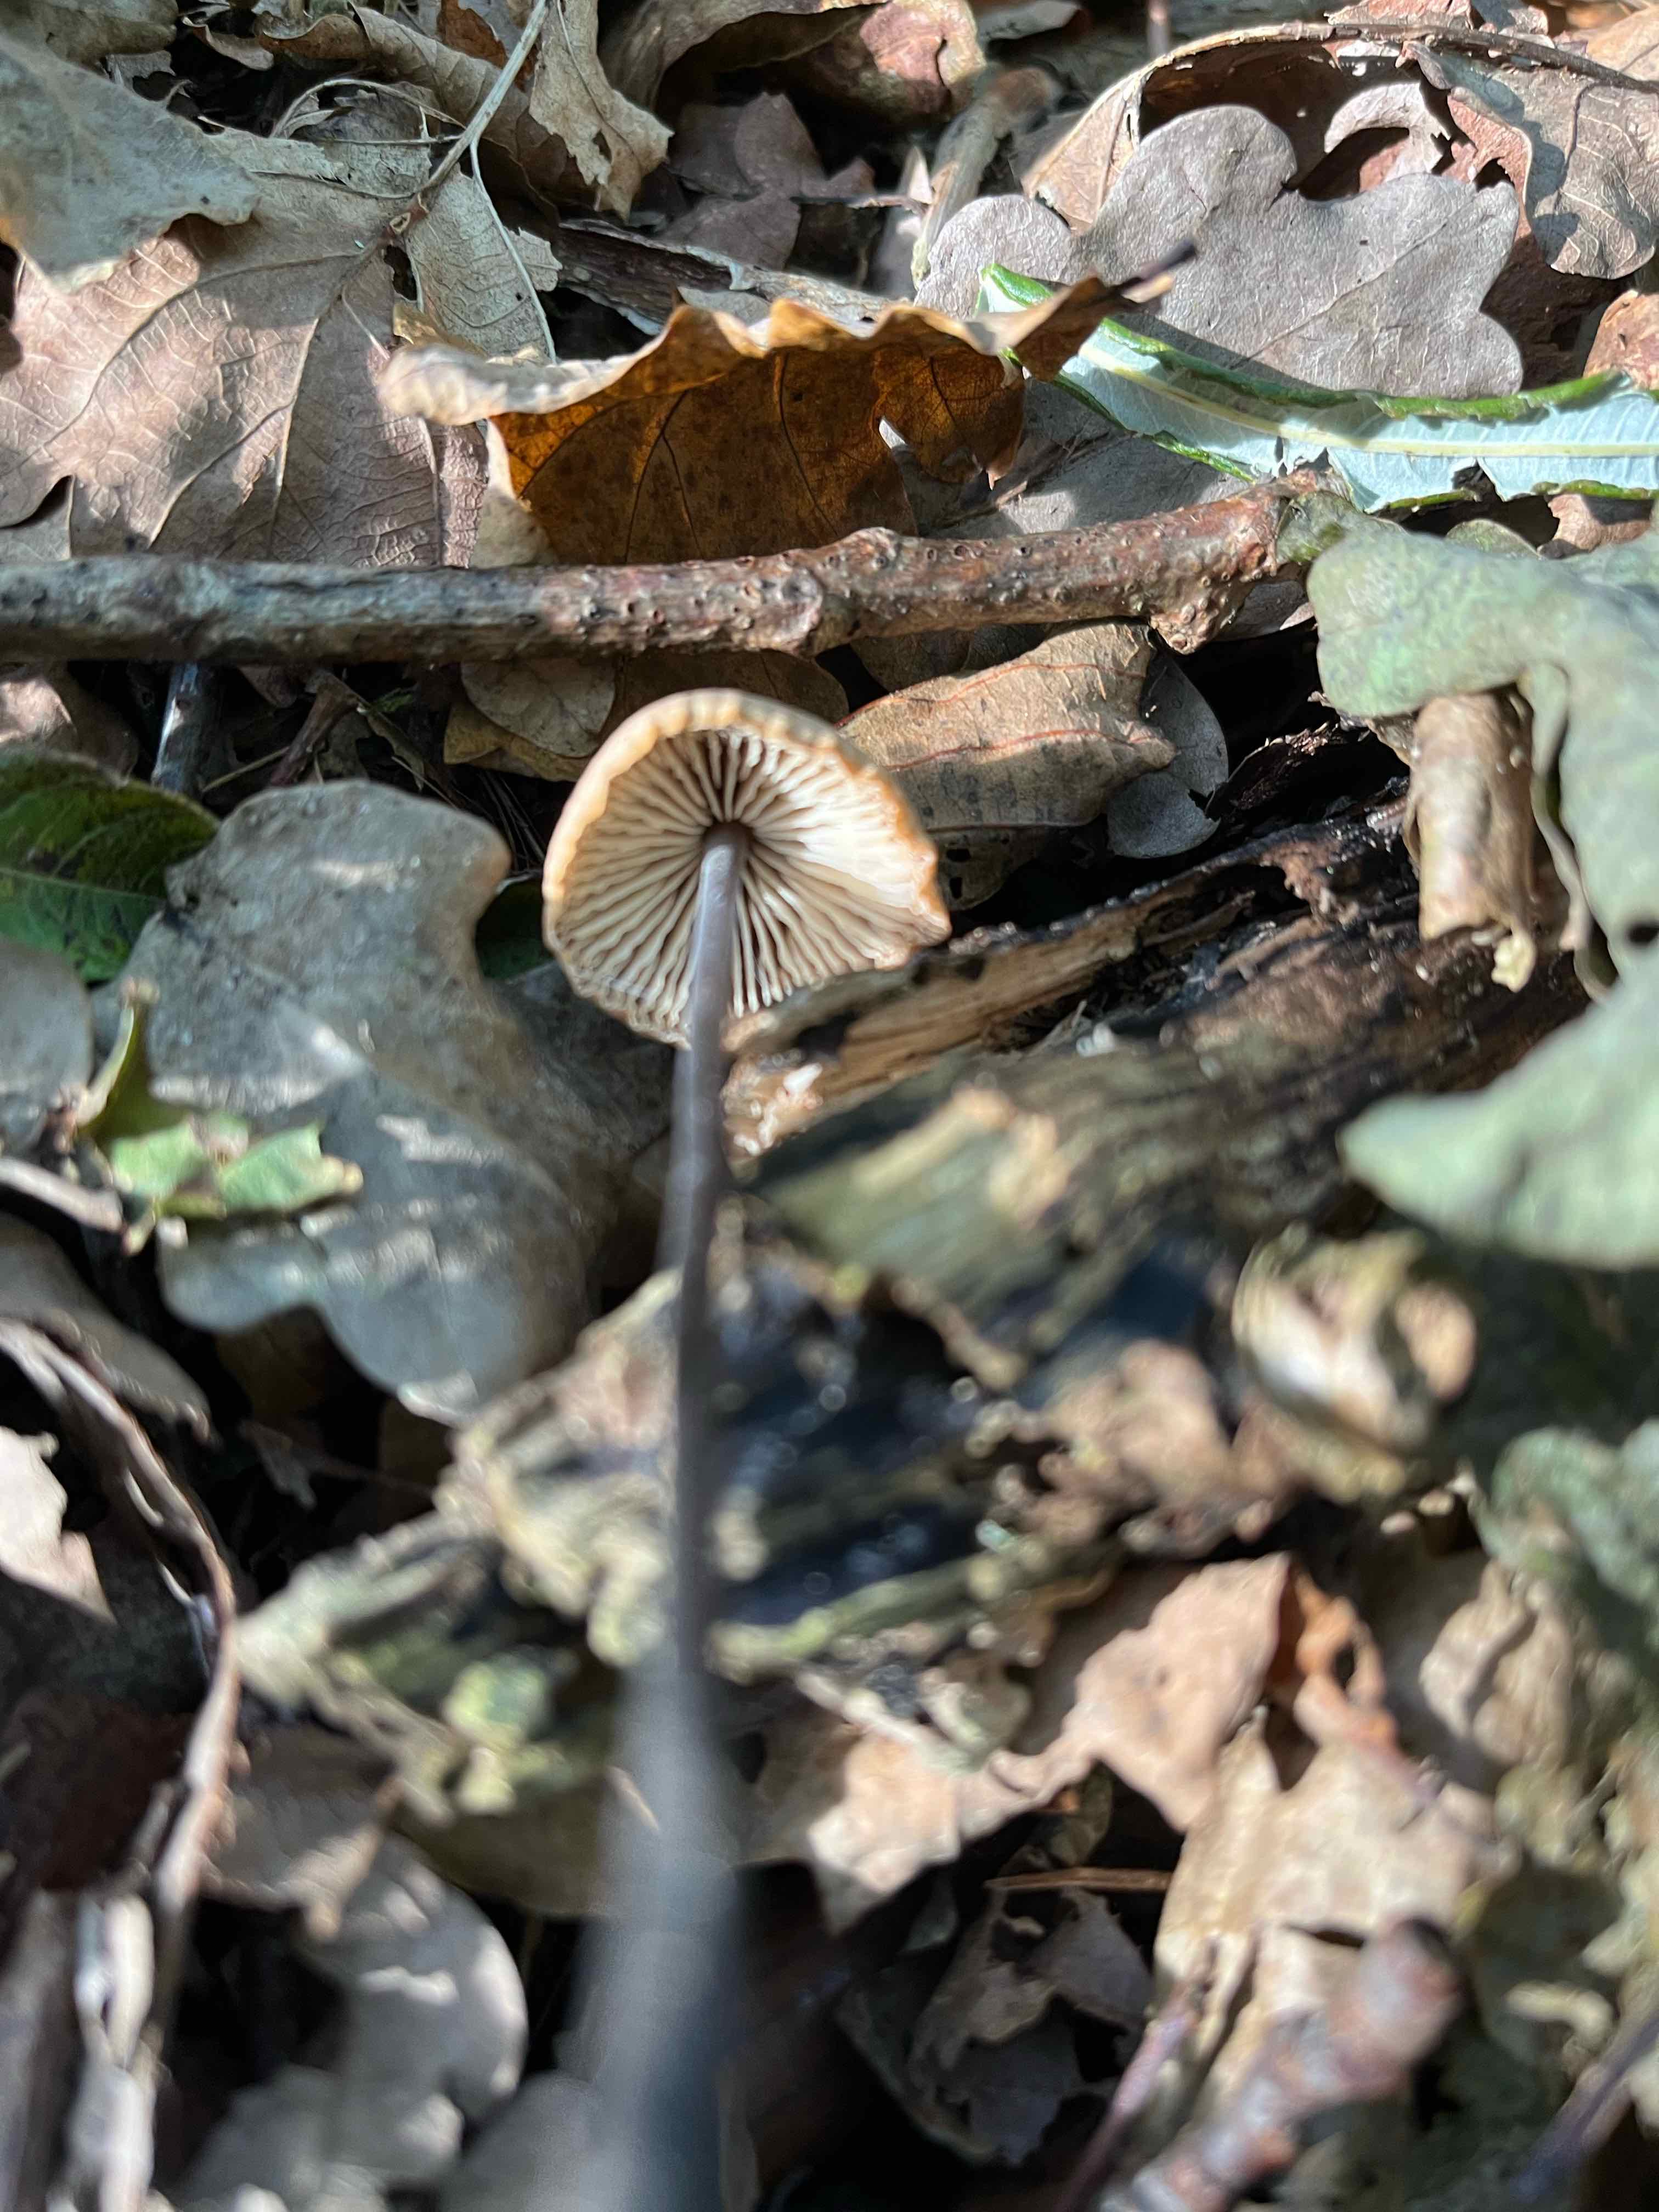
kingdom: Fungi
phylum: Basidiomycota
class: Agaricomycetes
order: Agaricales
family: Omphalotaceae
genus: Mycetinis
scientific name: Mycetinis alliaceus
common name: stor løghat
